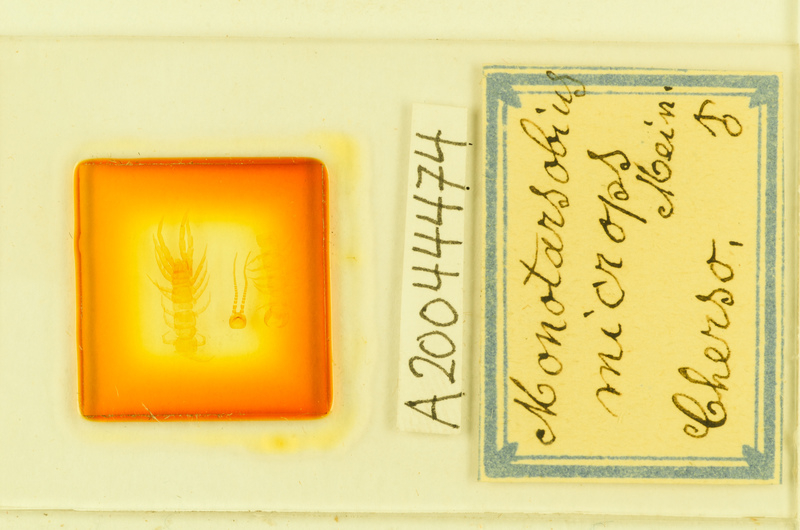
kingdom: Animalia
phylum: Arthropoda
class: Chilopoda
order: Lithobiomorpha
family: Lithobiidae
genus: Monotarsobius
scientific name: Monotarsobius microps
